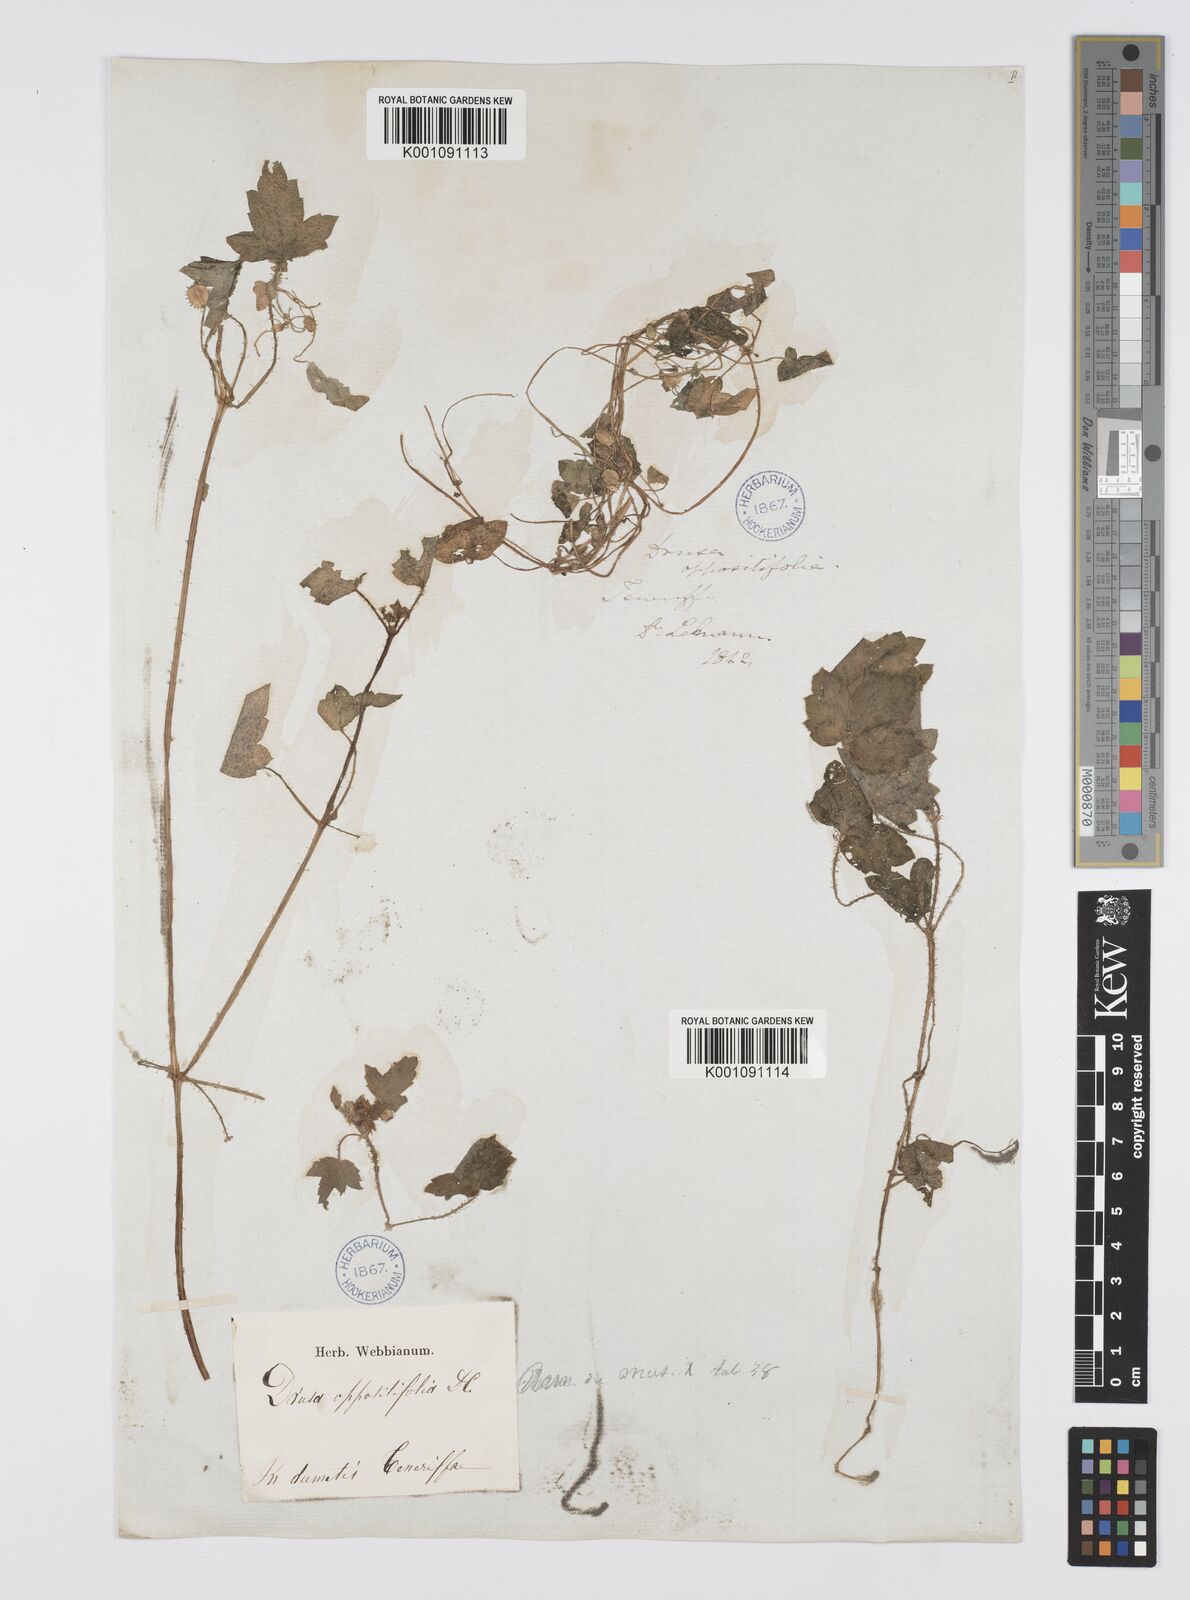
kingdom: Plantae
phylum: Tracheophyta
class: Magnoliopsida
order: Apiales
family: Apiaceae
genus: Drusa
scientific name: Drusa glandulosa
